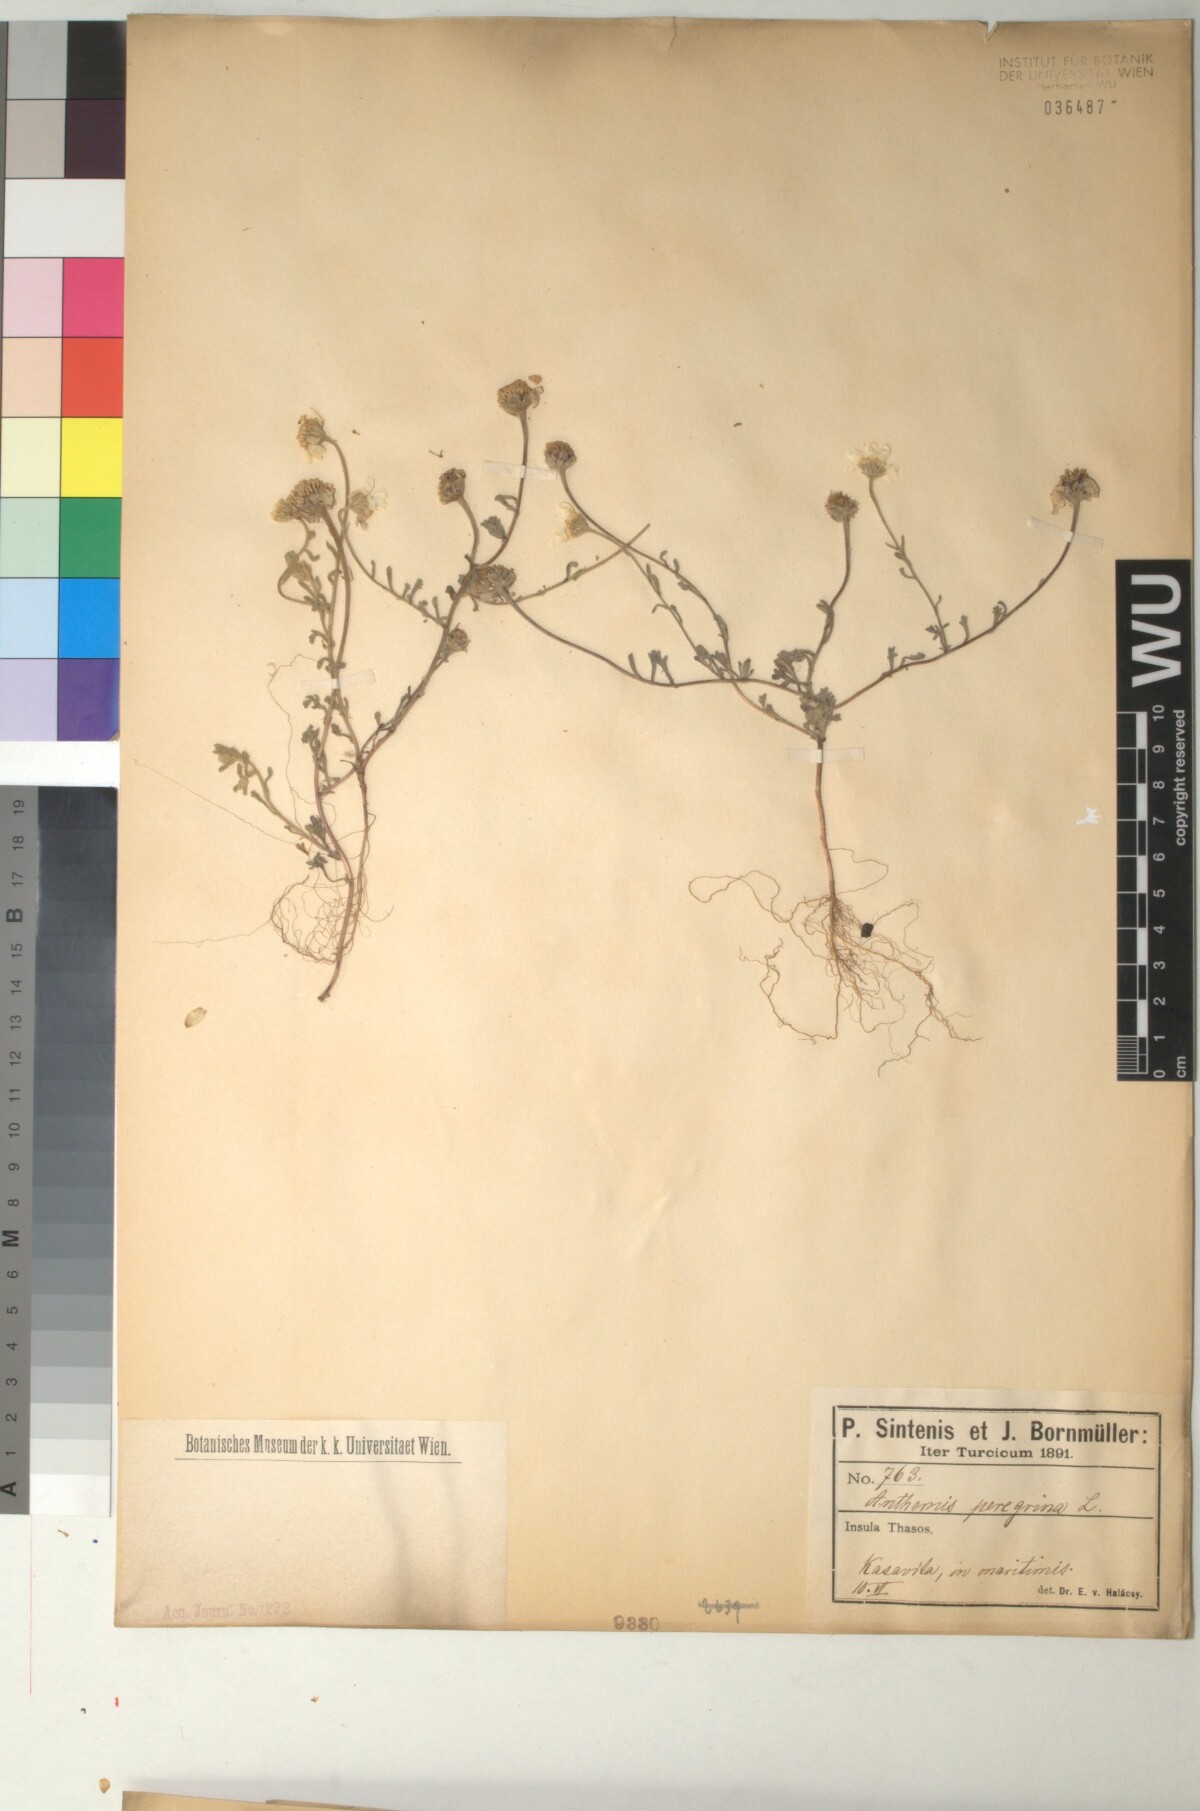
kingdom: Plantae
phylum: Tracheophyta
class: Magnoliopsida
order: Asterales
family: Asteraceae
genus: Anthemis
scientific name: Anthemis tomentosa
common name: Woolly chamomile
